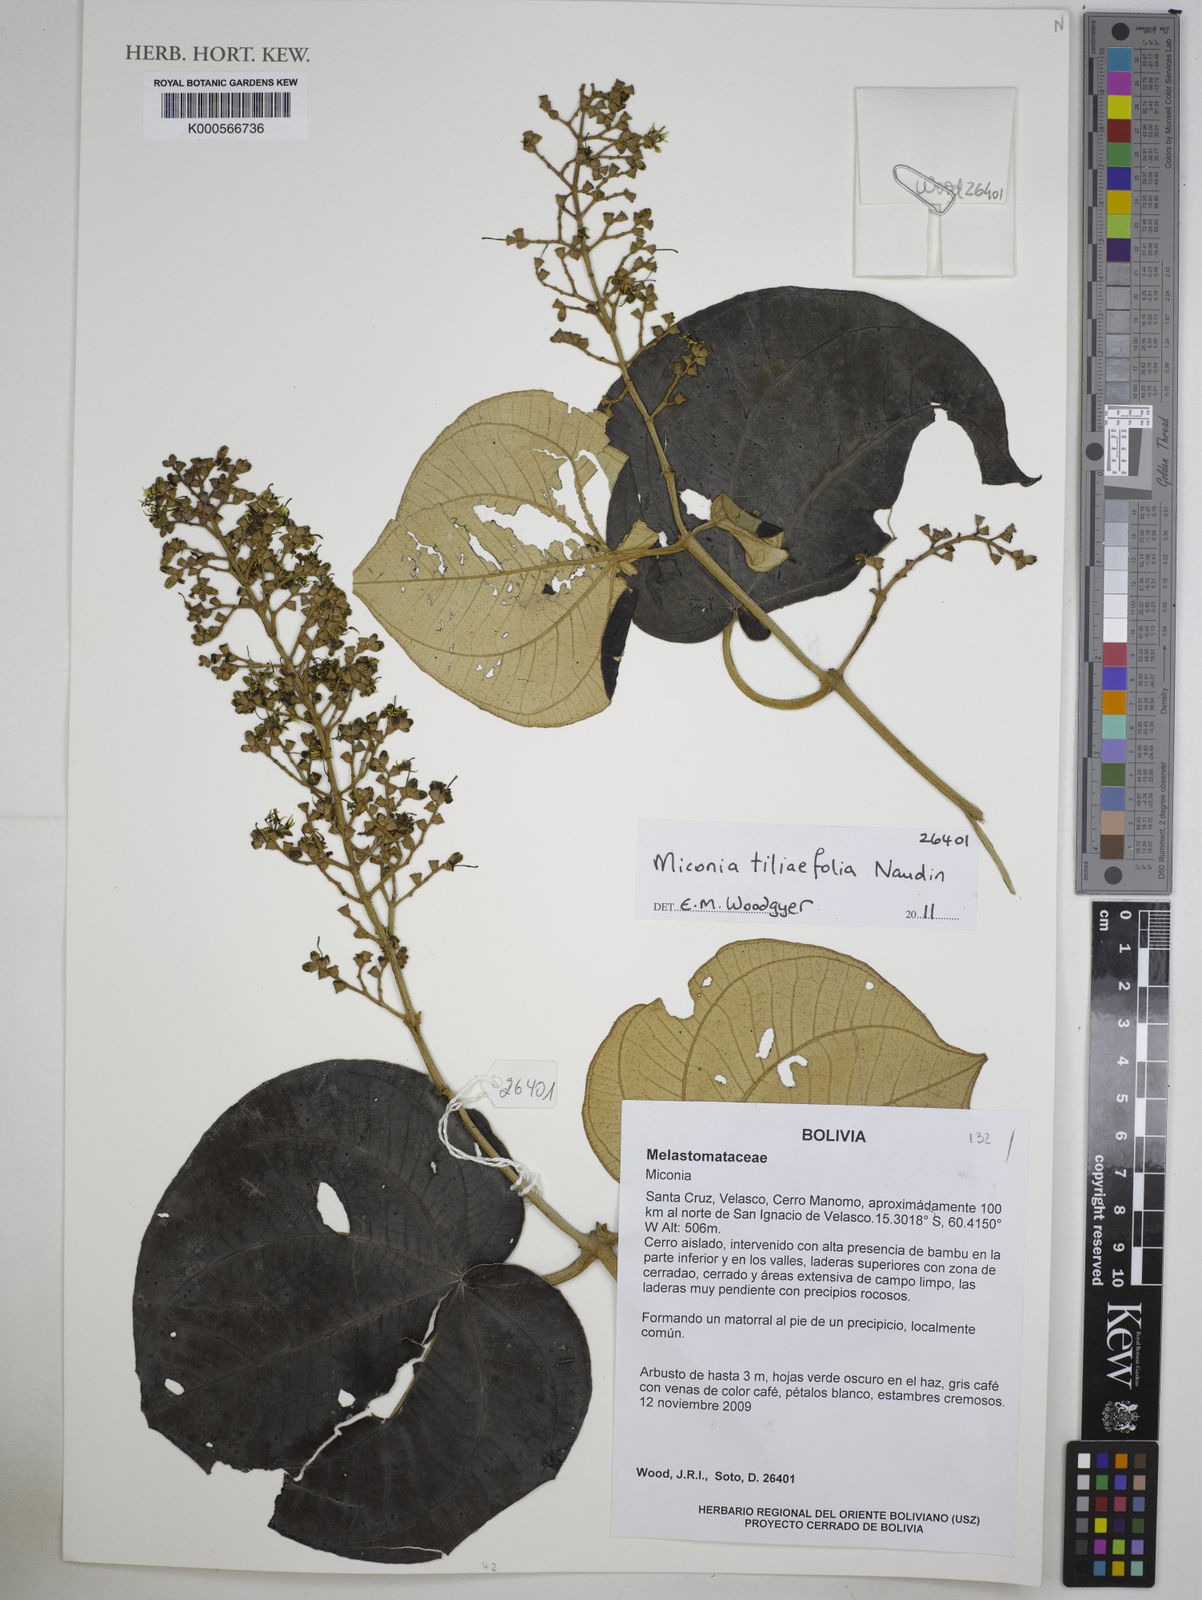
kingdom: Plantae
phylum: Tracheophyta
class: Magnoliopsida
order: Myrtales
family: Melastomataceae
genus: Miconia
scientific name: Miconia
